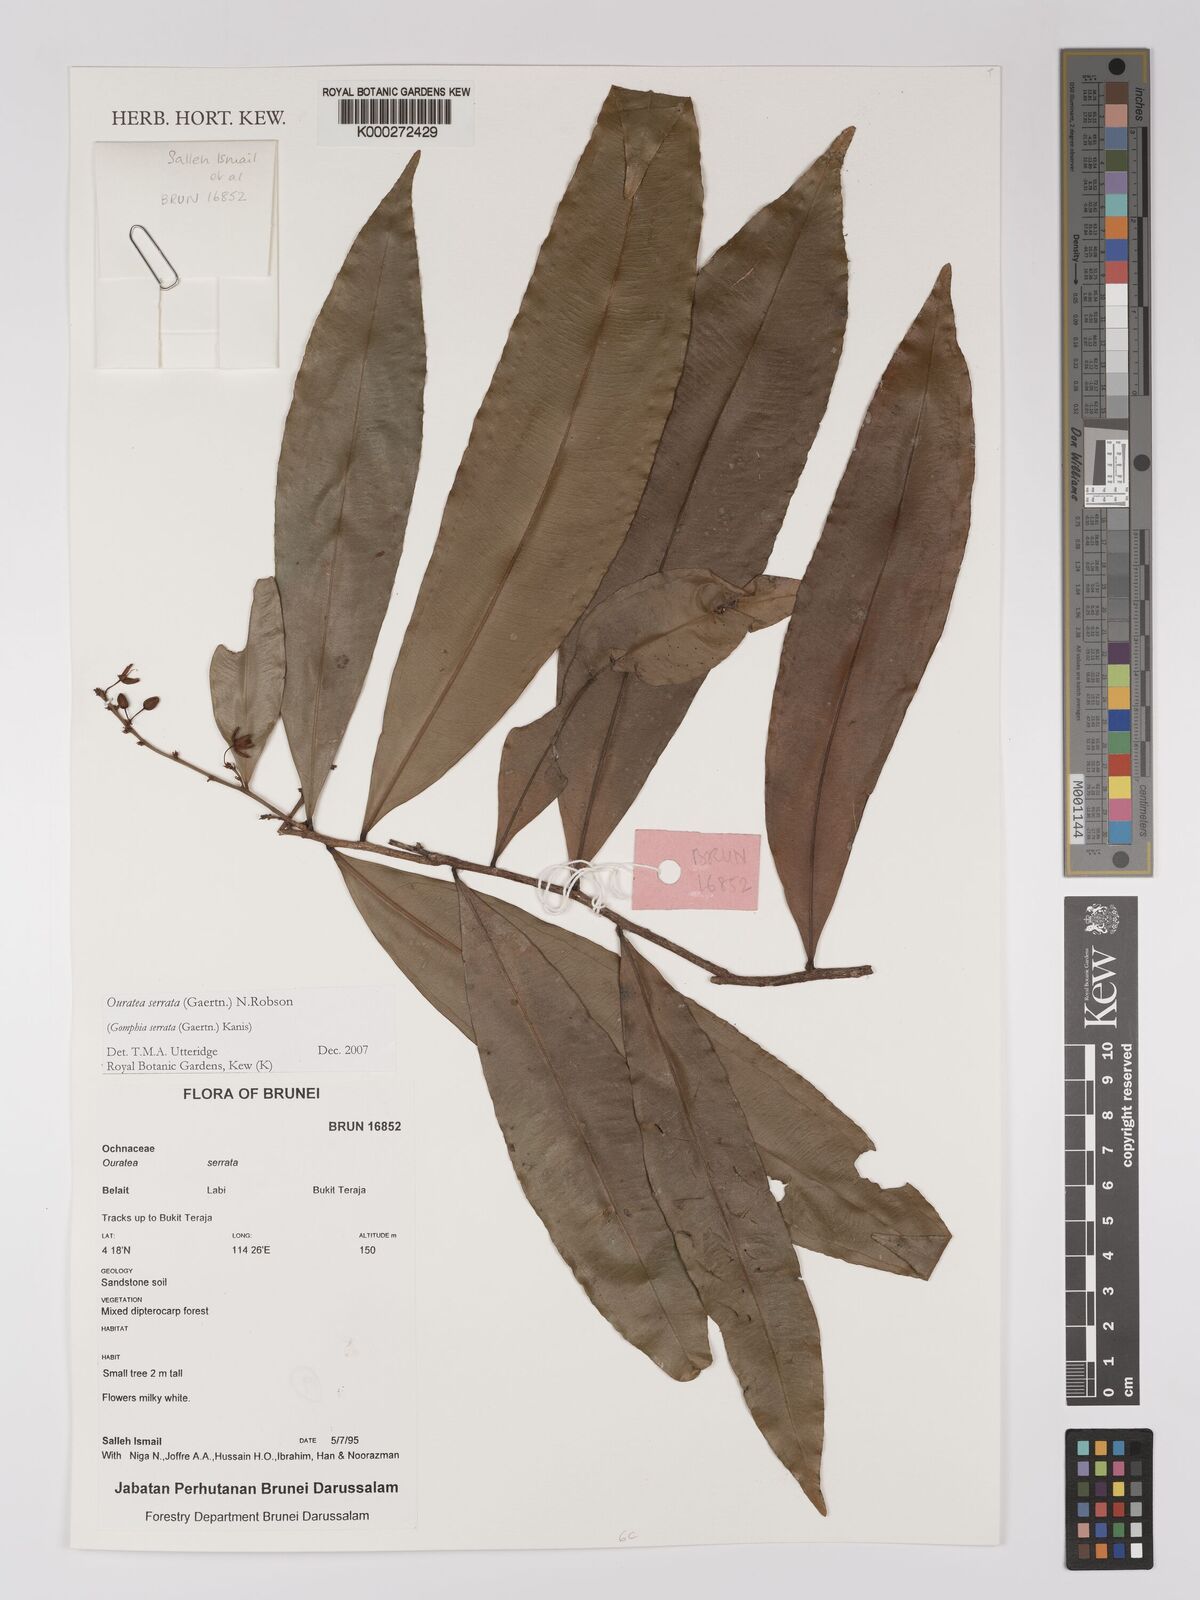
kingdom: Plantae
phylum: Tracheophyta
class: Magnoliopsida
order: Malpighiales
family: Ochnaceae
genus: Gomphia
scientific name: Gomphia serrata
